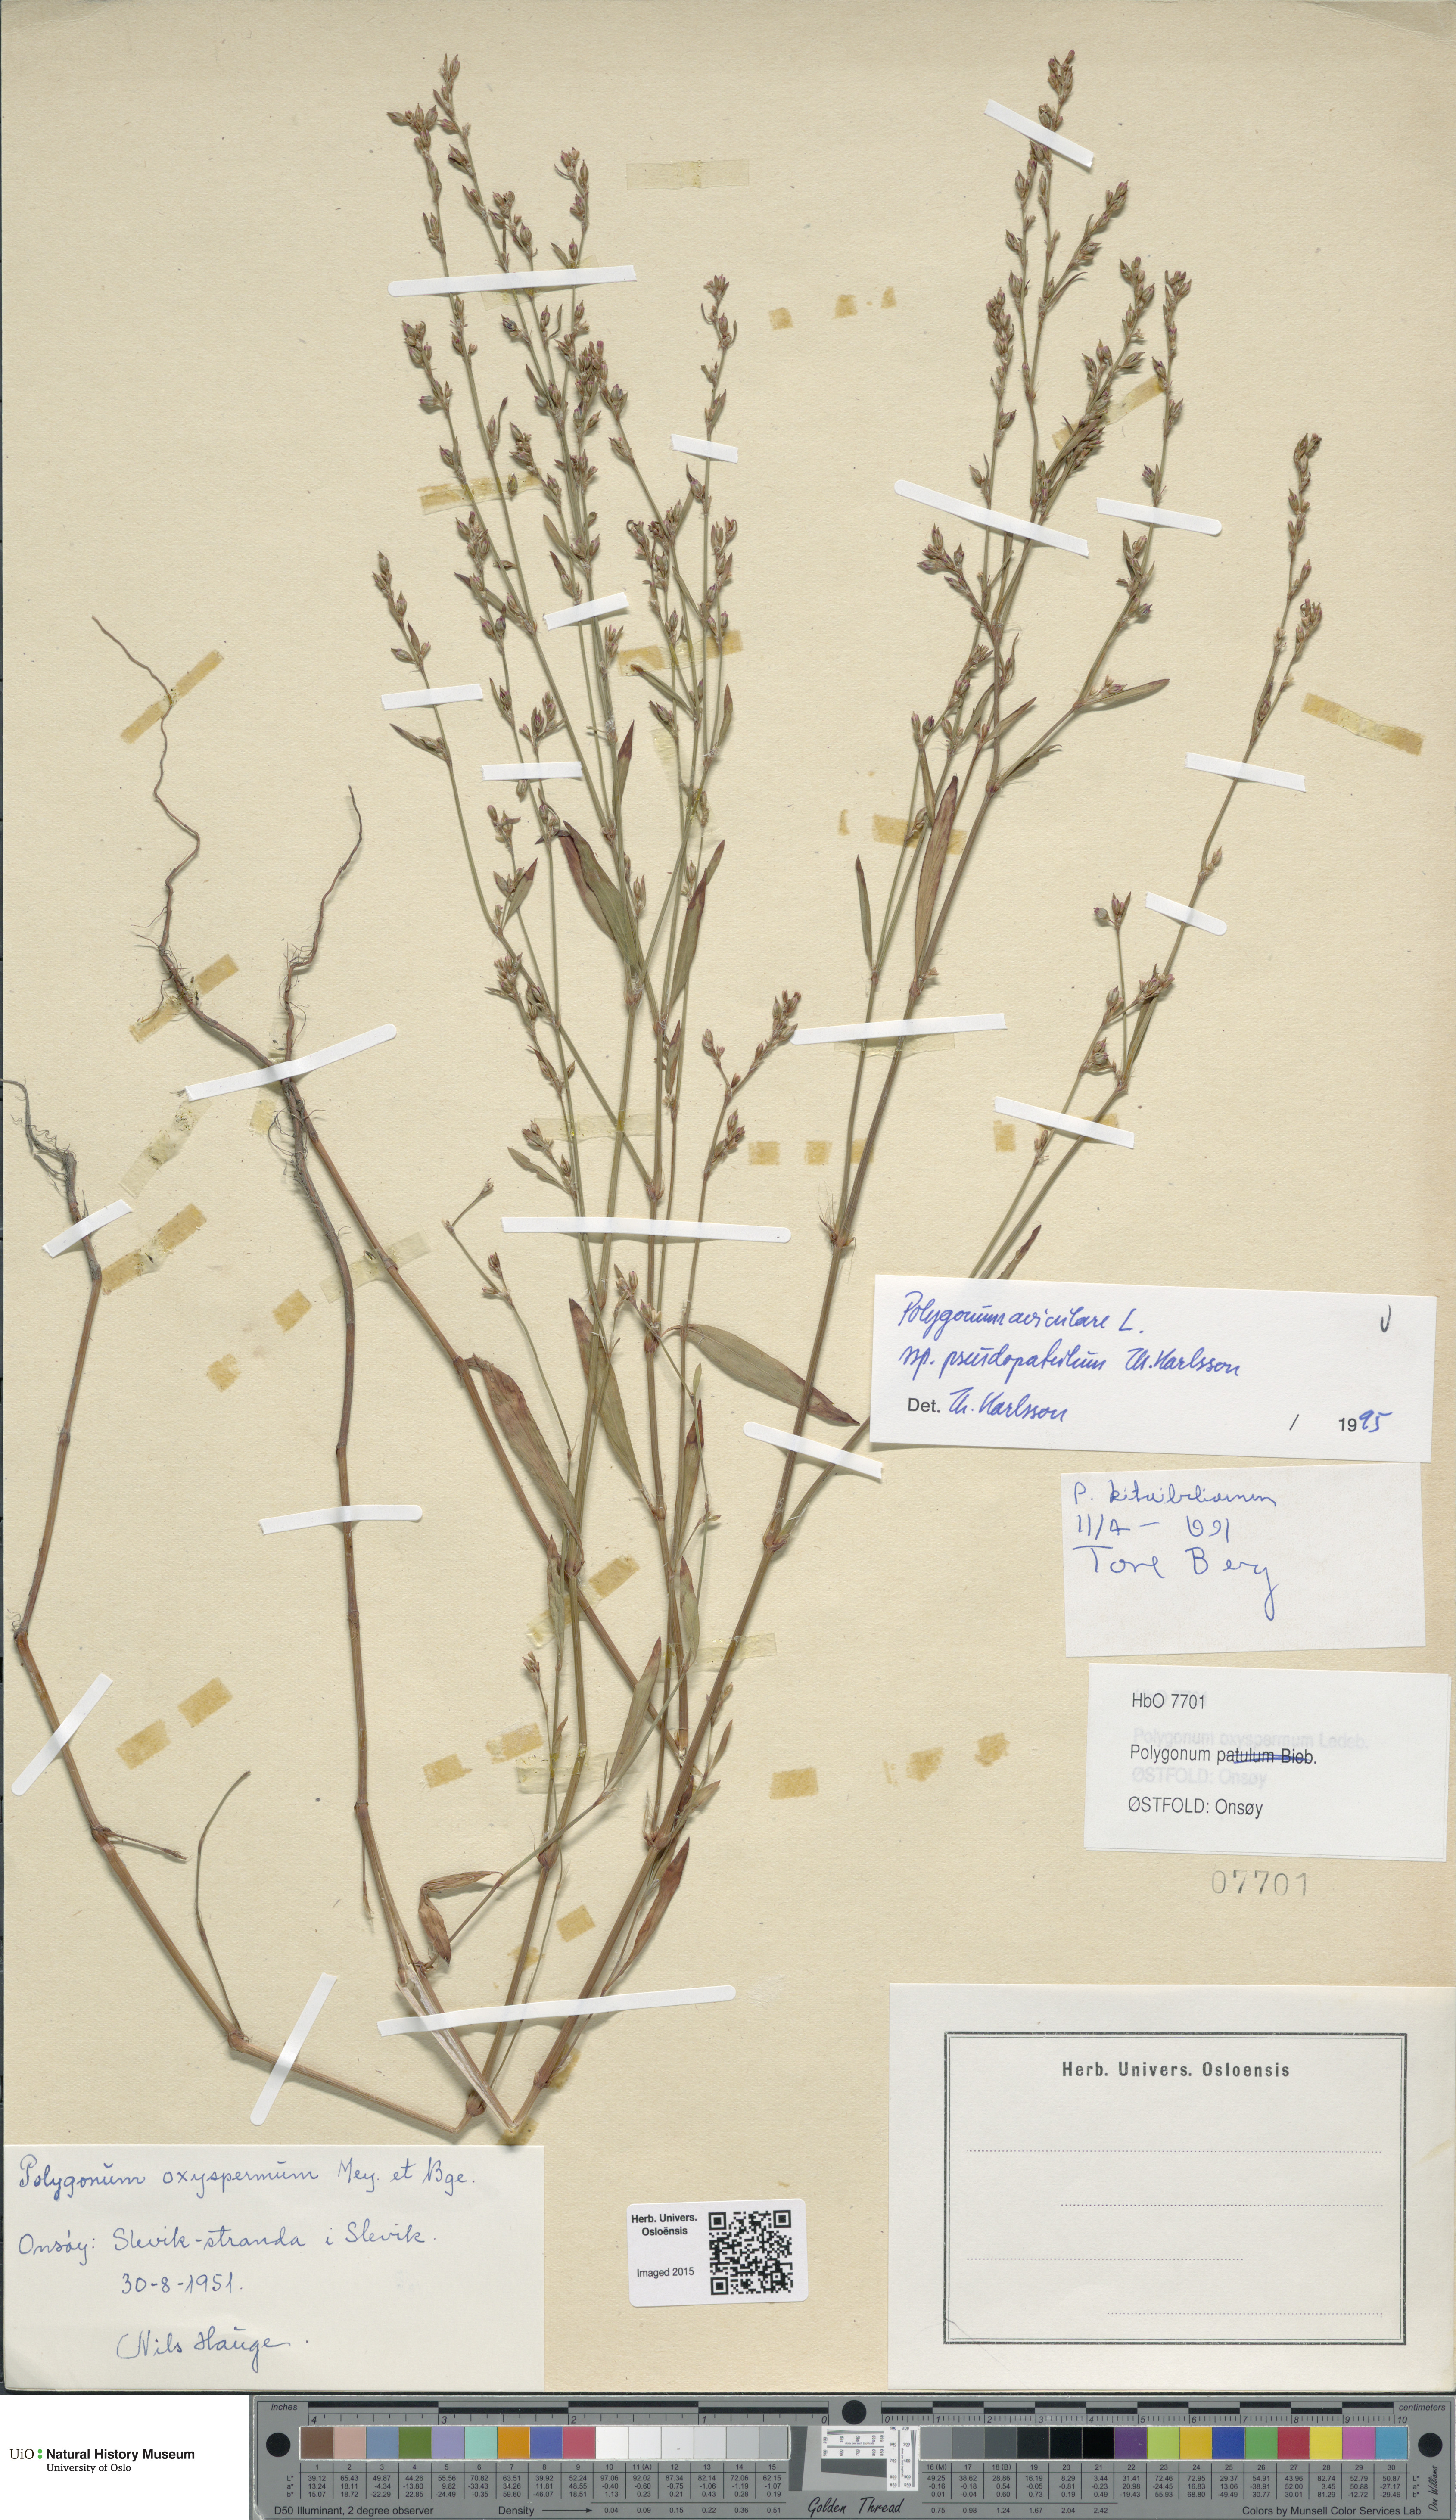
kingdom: Plantae
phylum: Tracheophyta
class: Magnoliopsida
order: Caryophyllales
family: Polygonaceae
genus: Polygonum
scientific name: Polygonum excelsius
